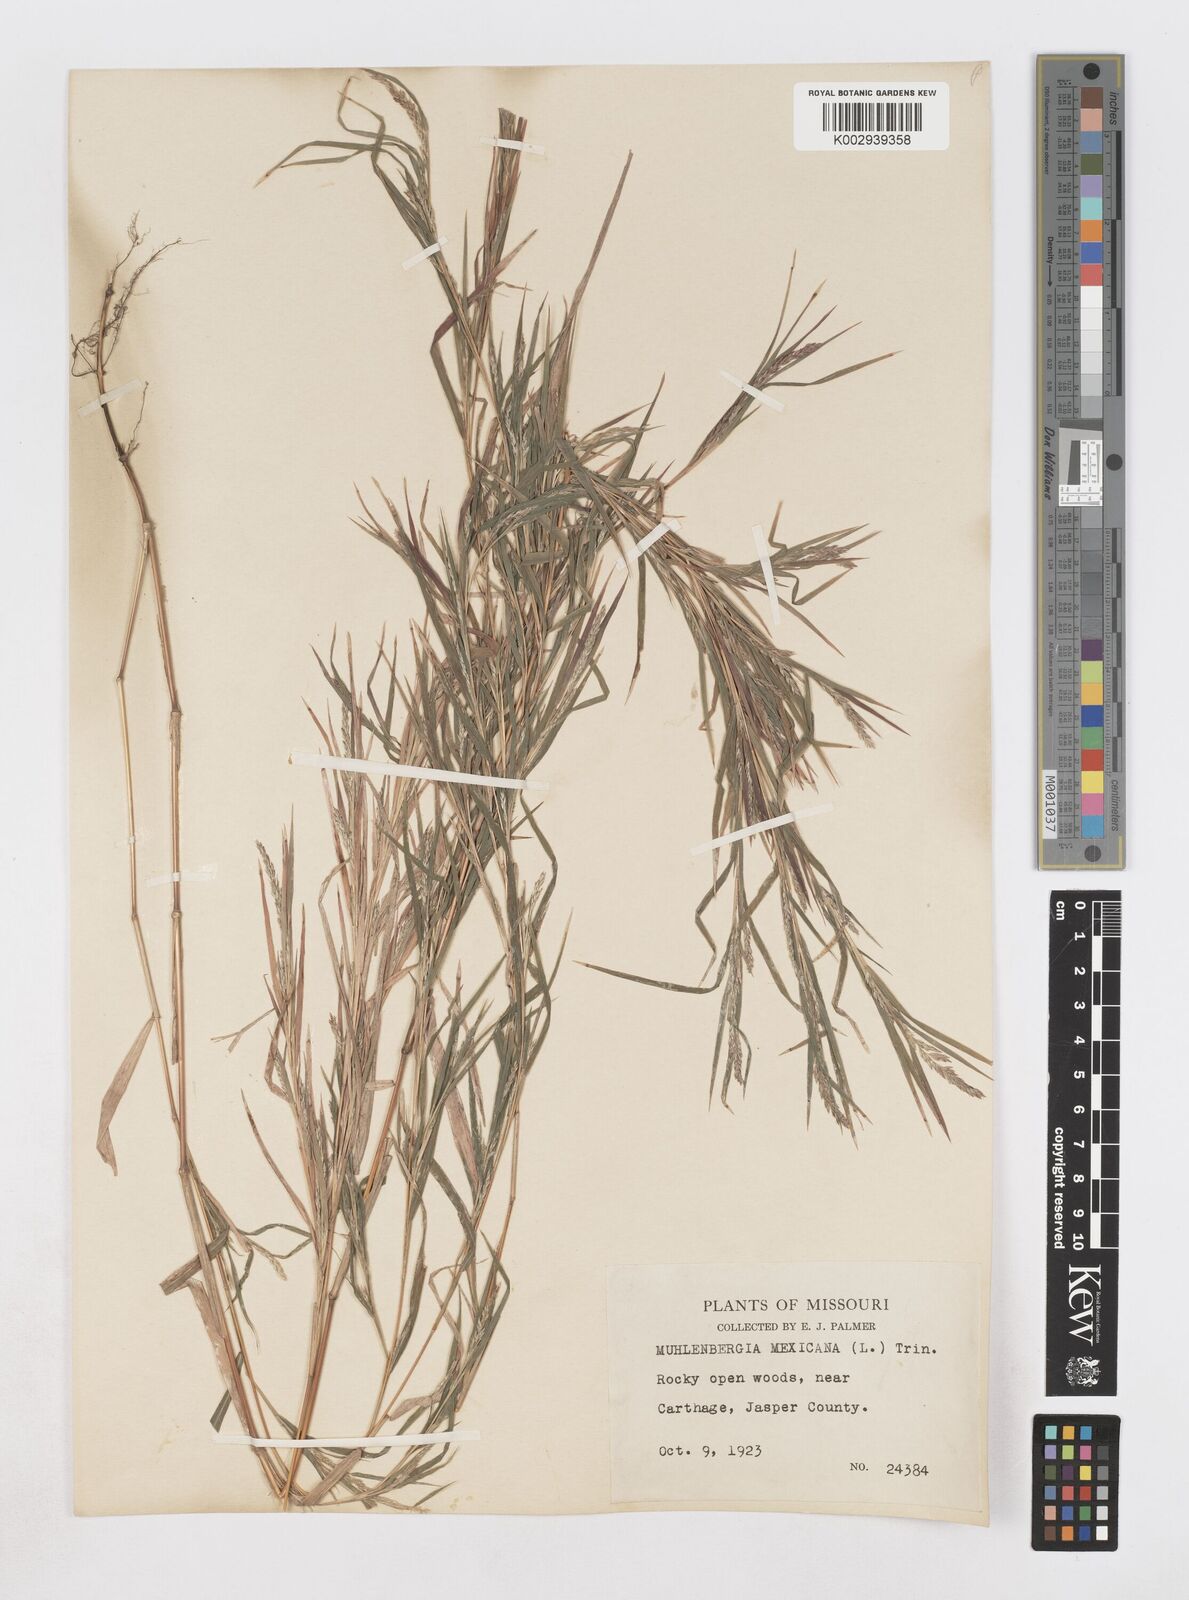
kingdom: Plantae
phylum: Tracheophyta
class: Liliopsida
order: Poales
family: Poaceae
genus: Muhlenbergia
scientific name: Muhlenbergia mexicana
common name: Mexican muhly
